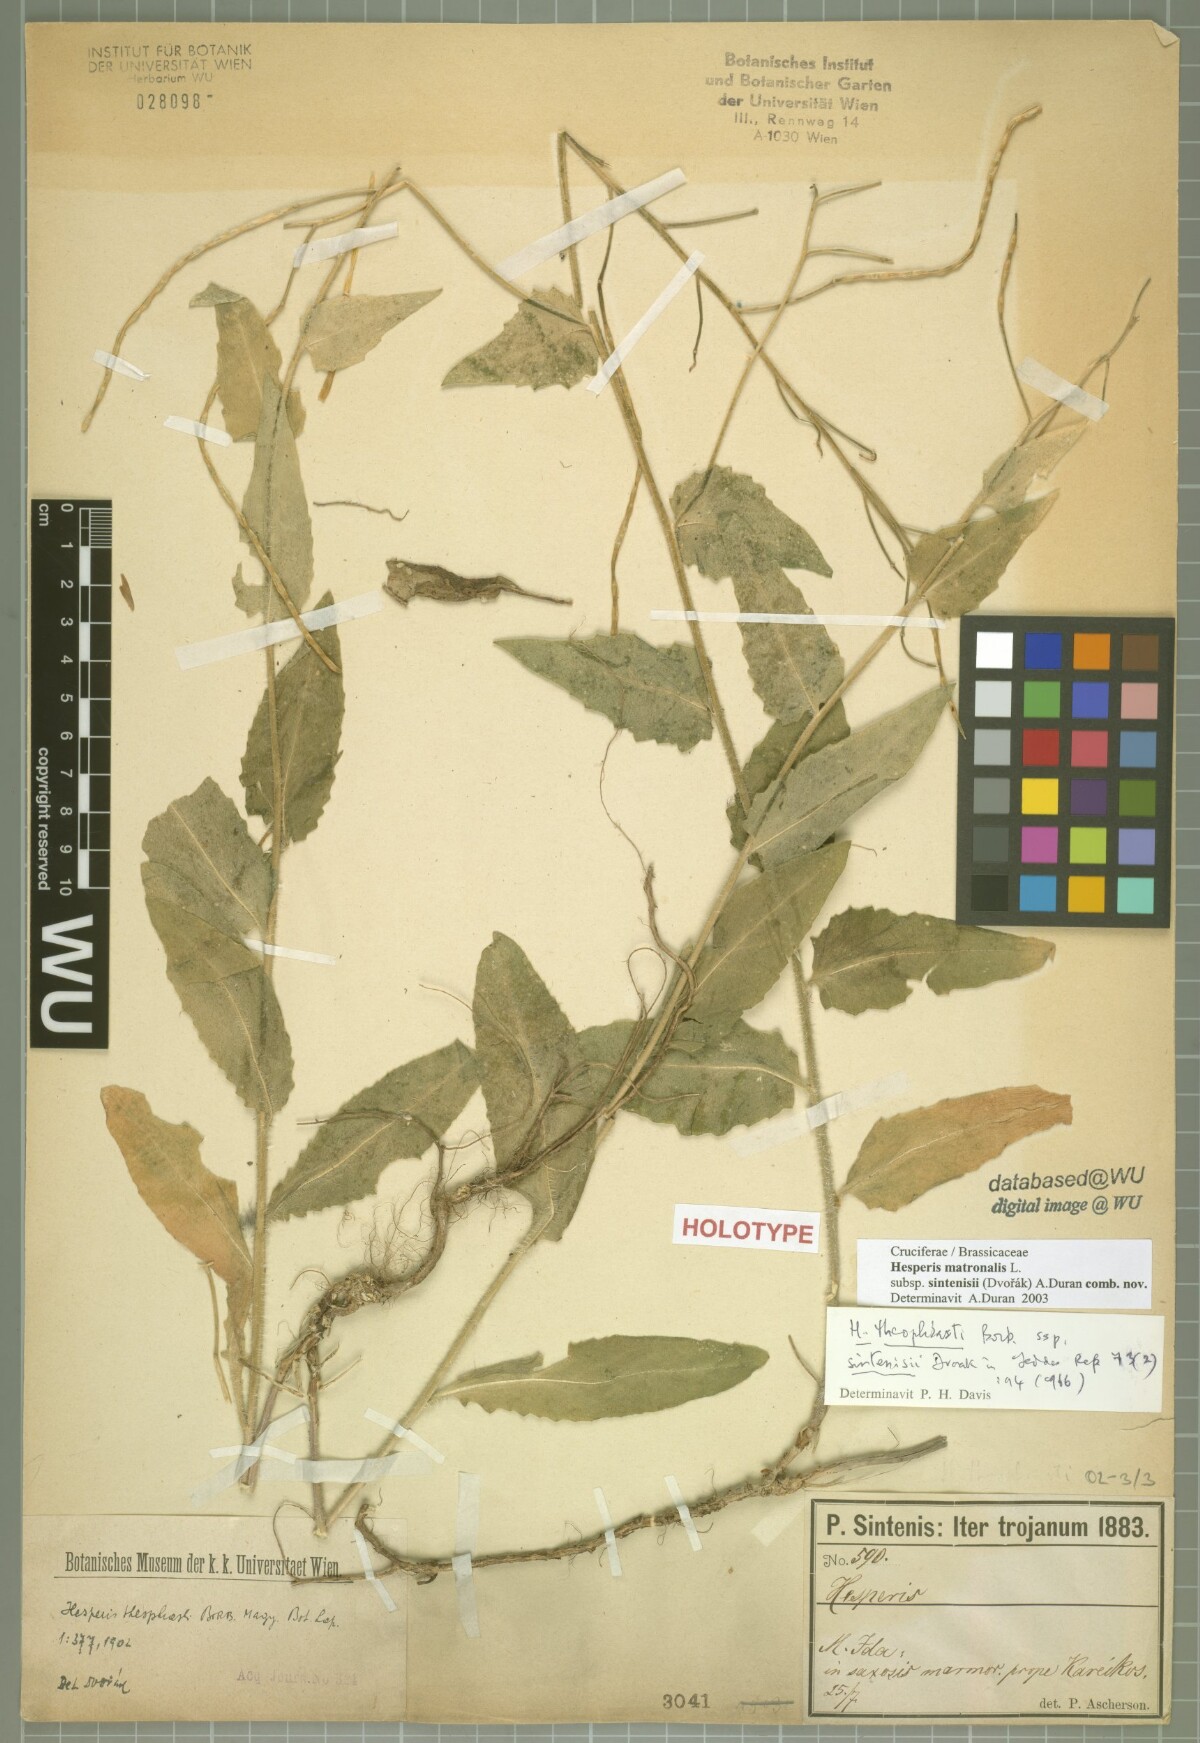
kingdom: Plantae
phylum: Tracheophyta
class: Magnoliopsida
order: Brassicales
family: Brassicaceae
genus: Hesperis
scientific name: Hesperis theophrasti
